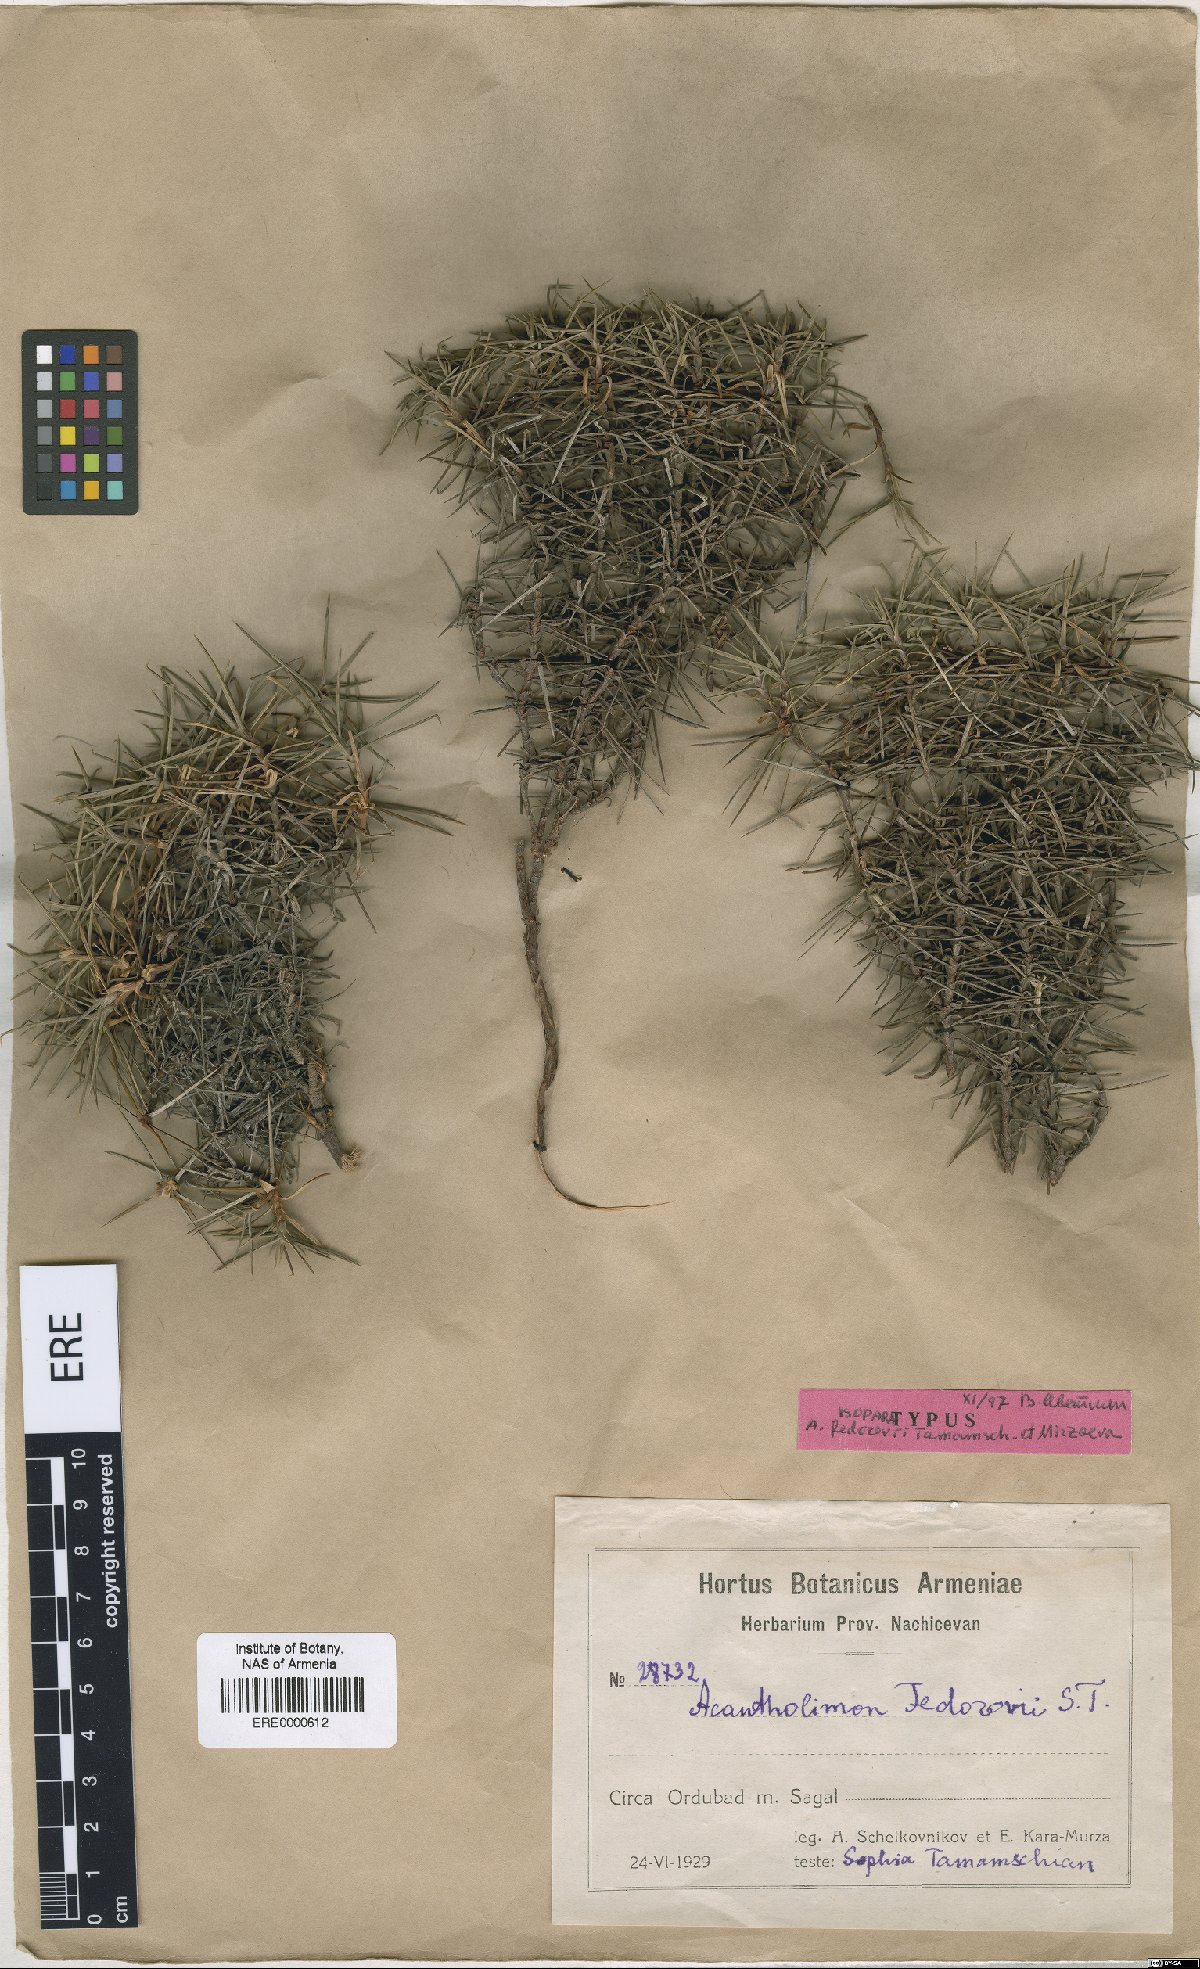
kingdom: Plantae
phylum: Tracheophyta
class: Magnoliopsida
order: Caryophyllales
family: Plumbaginaceae
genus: Acantholimon
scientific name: Acantholimon fedorovii
